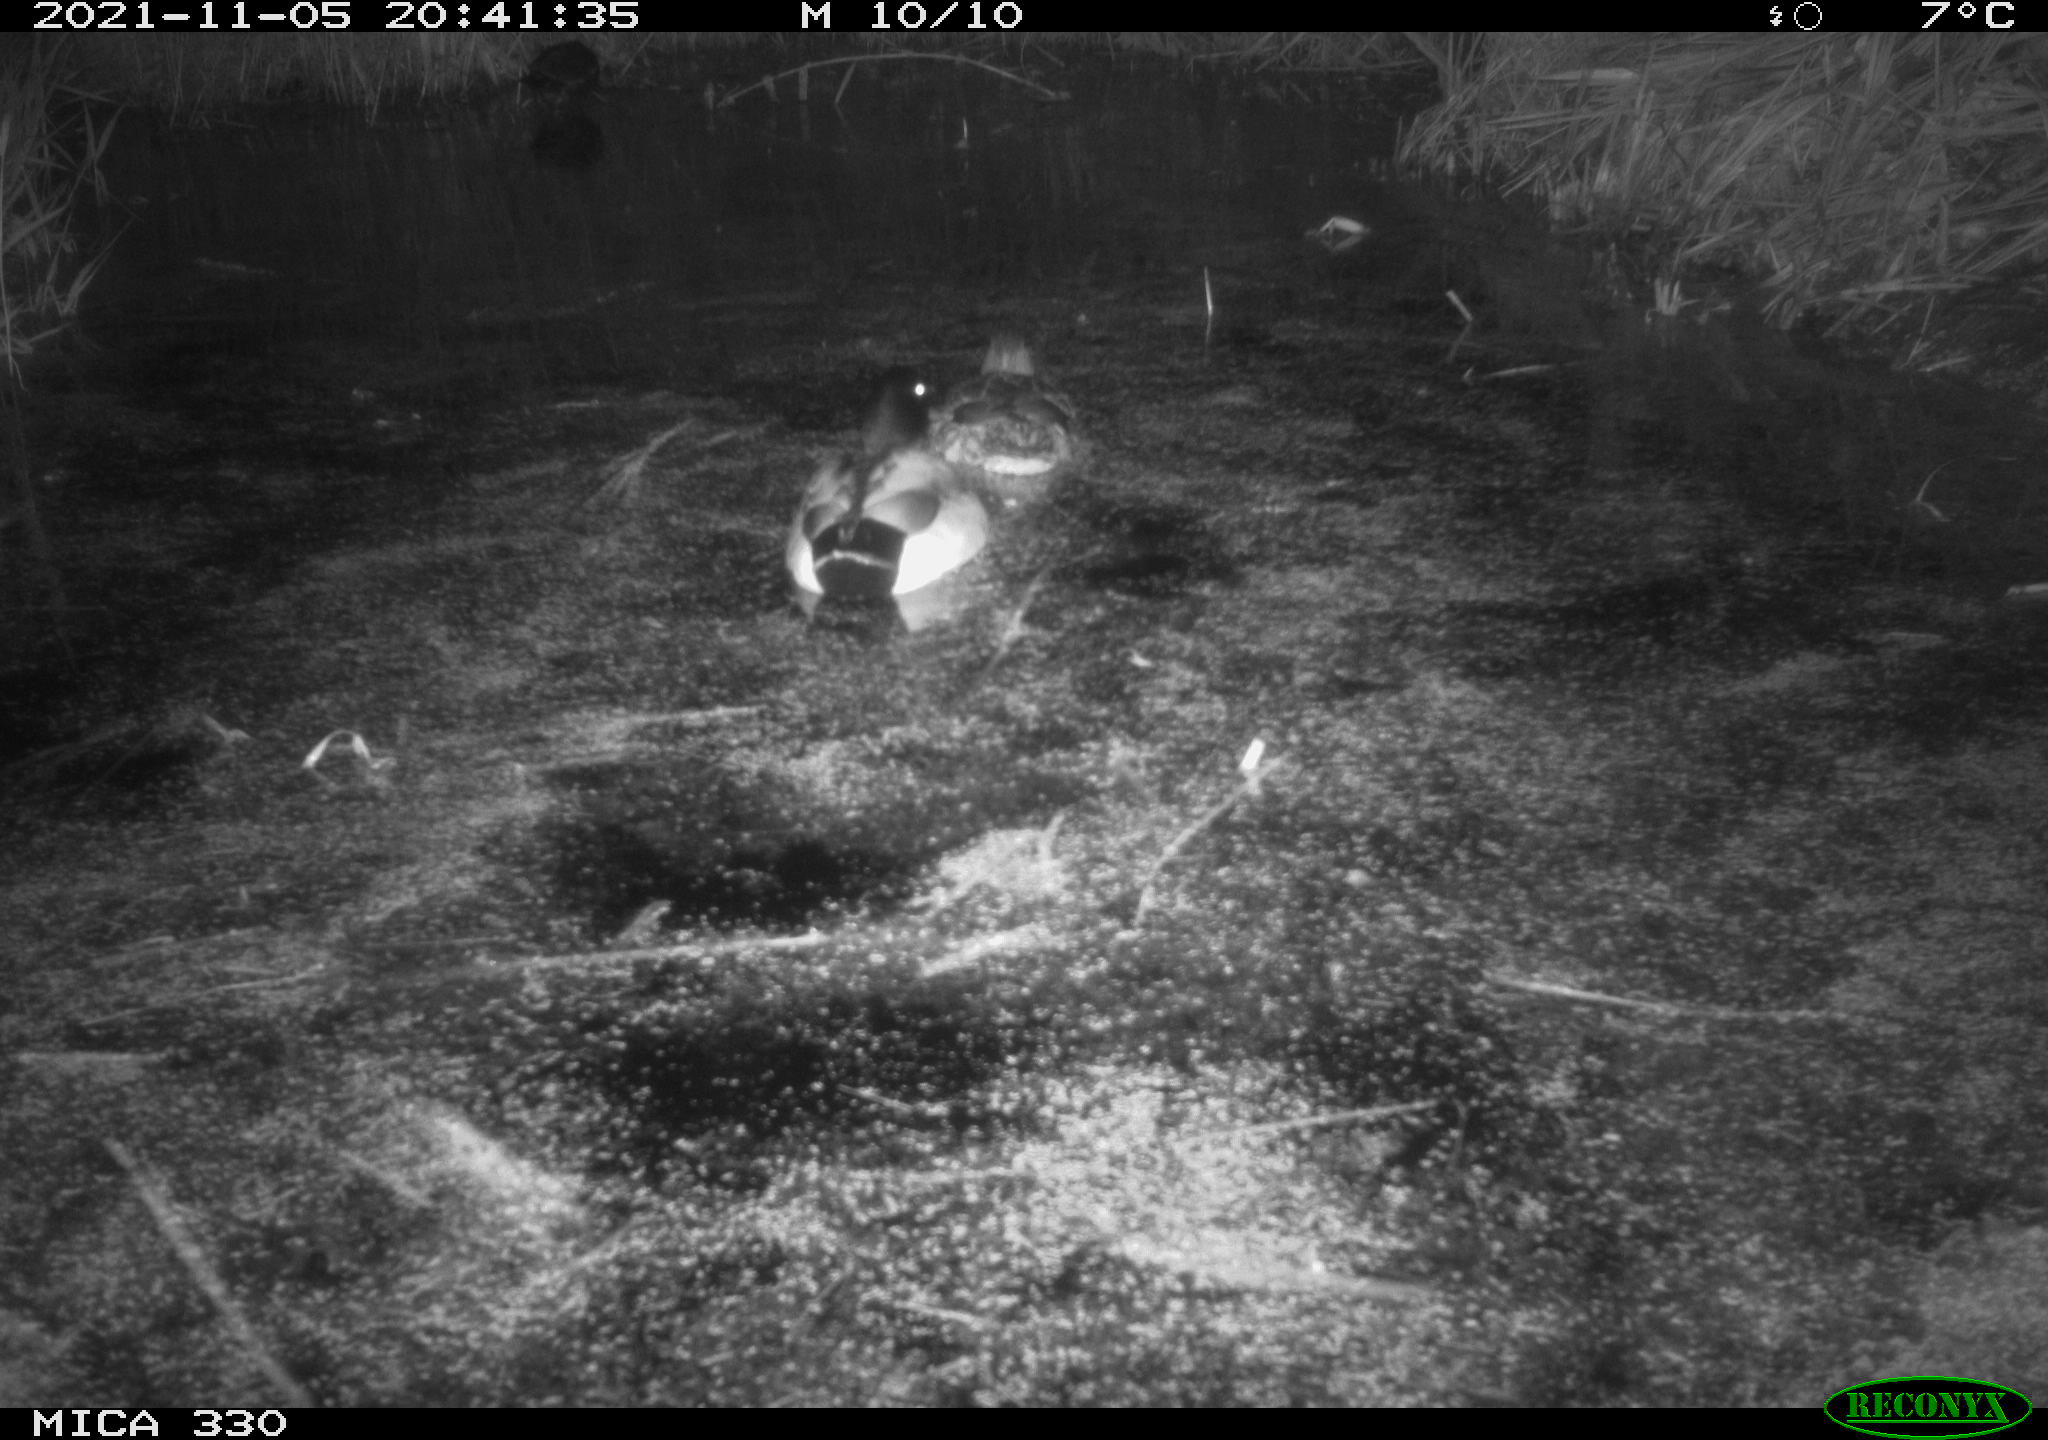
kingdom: Animalia
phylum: Chordata
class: Aves
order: Anseriformes
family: Anatidae
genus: Anas
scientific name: Anas platyrhynchos
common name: Mallard
